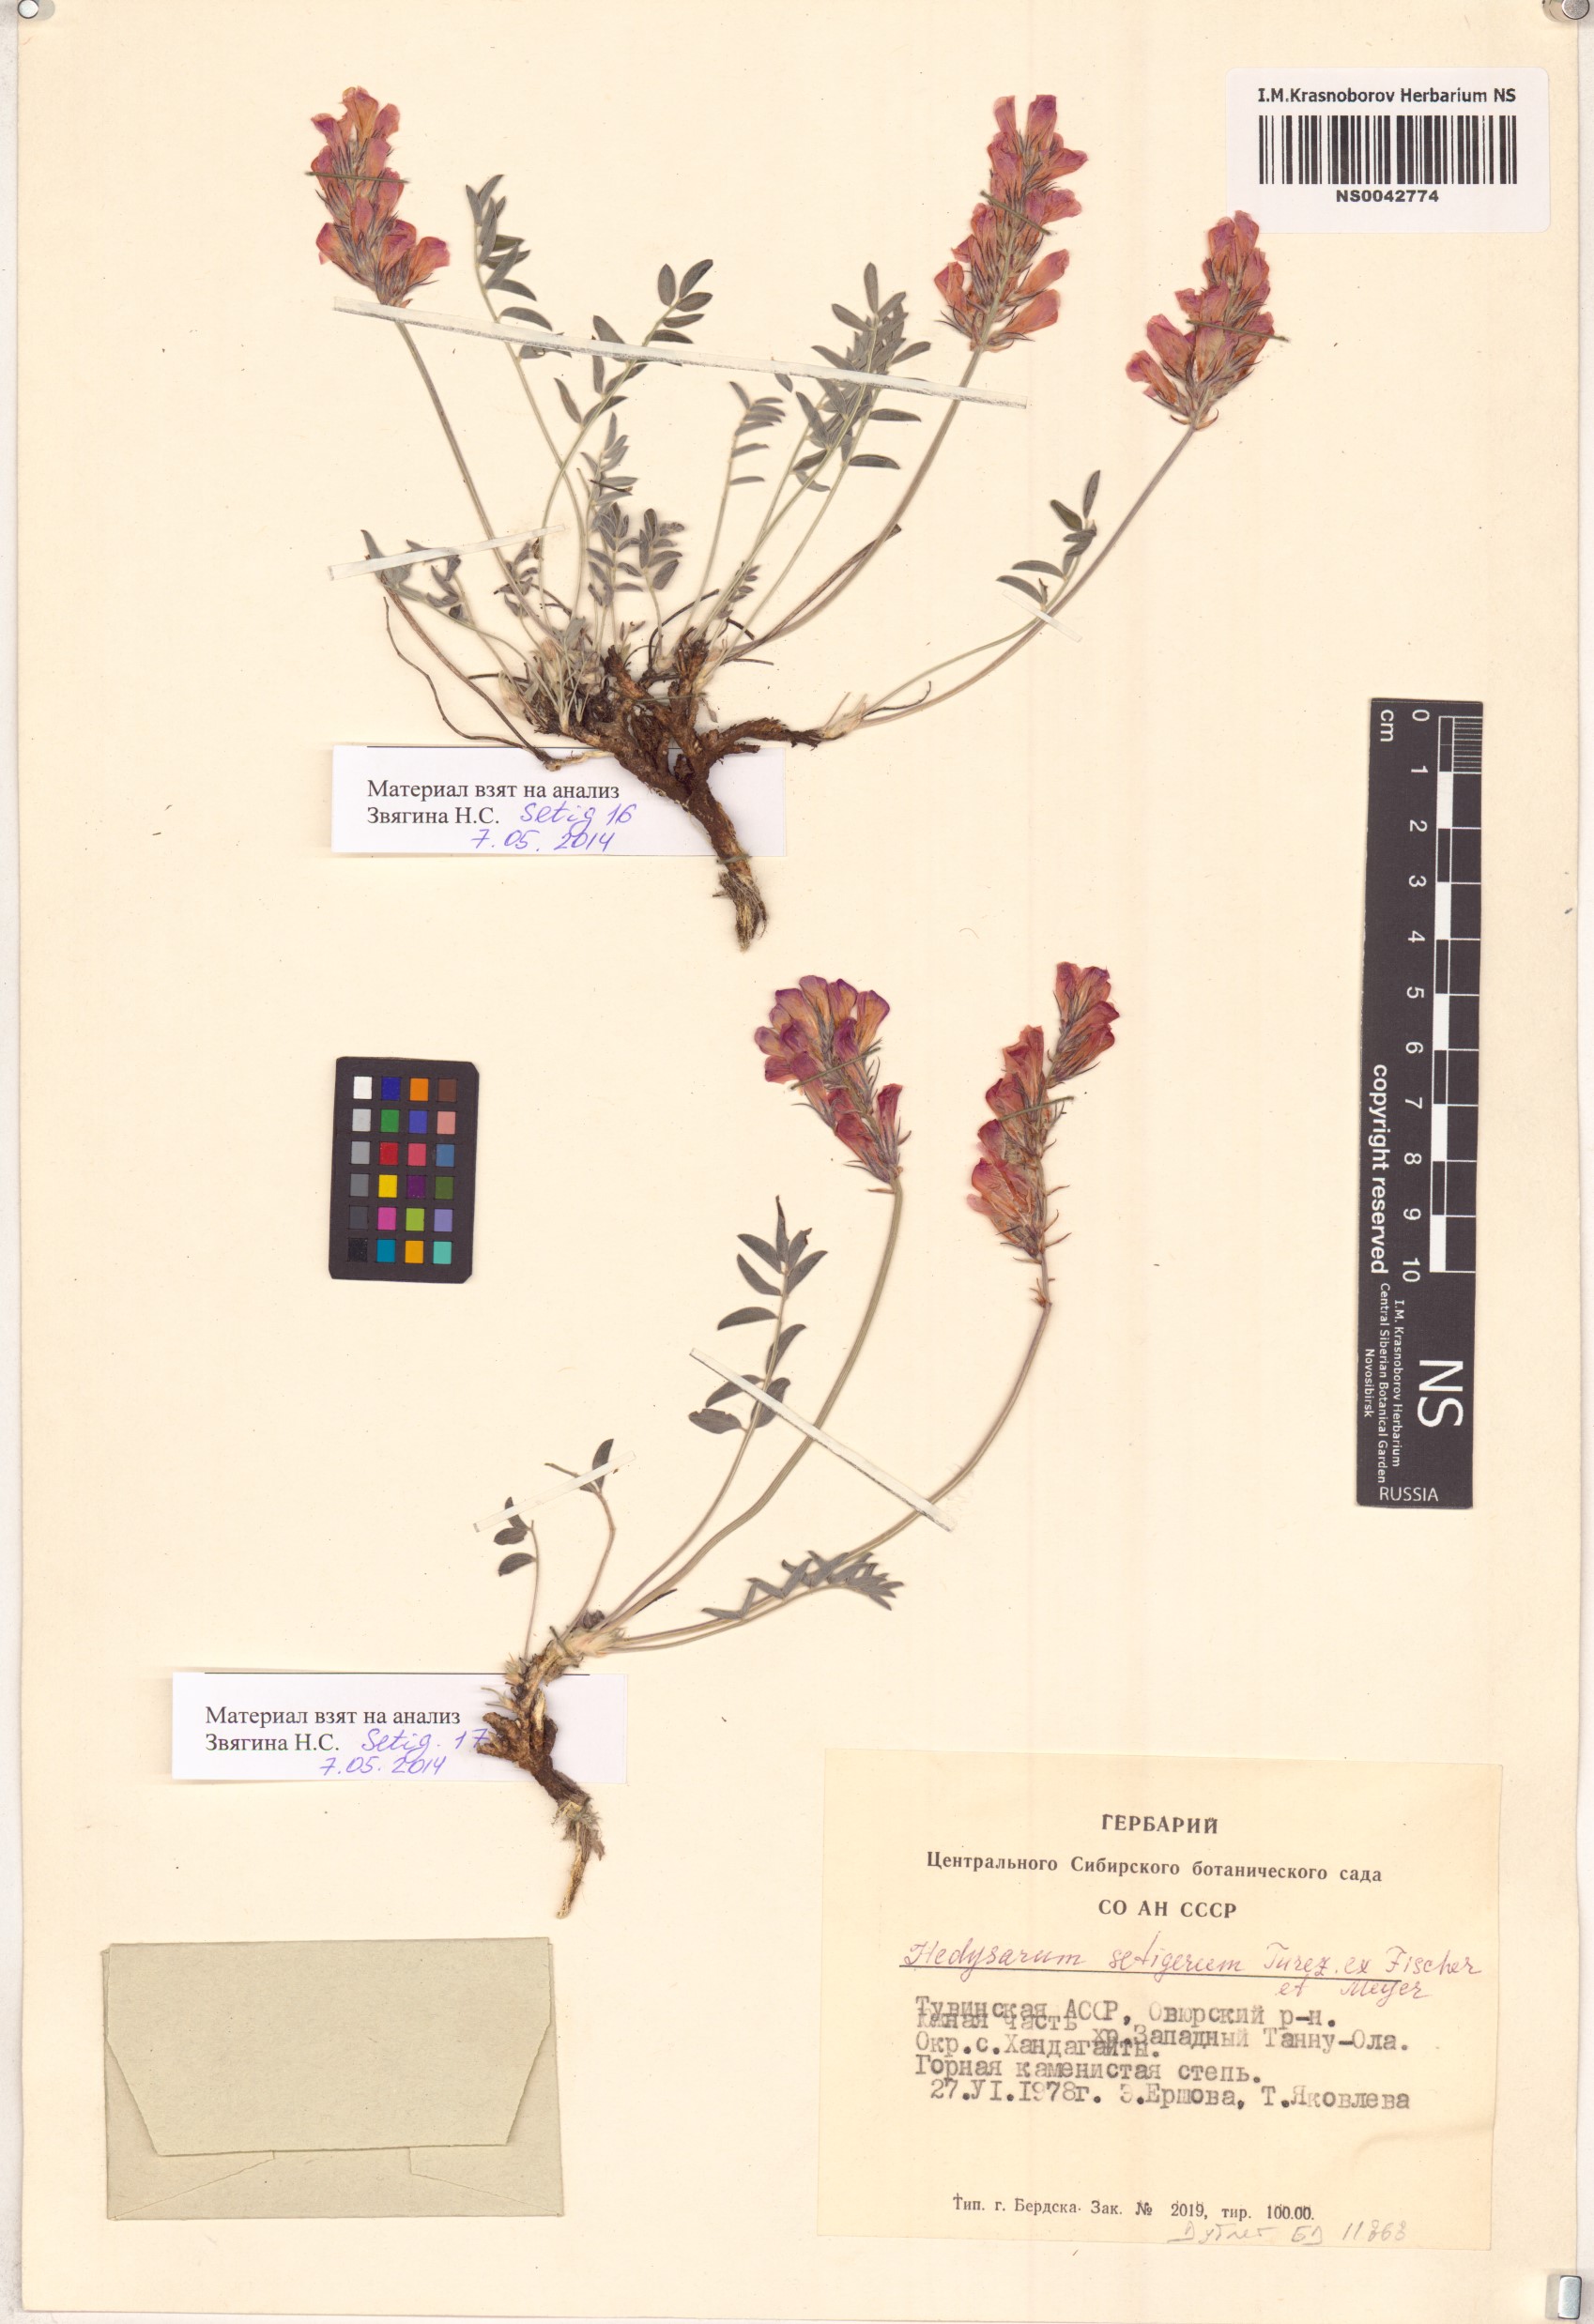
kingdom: Plantae
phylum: Tracheophyta
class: Magnoliopsida
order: Fabales
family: Fabaceae
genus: Hedysarum
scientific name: Hedysarum setigerum
